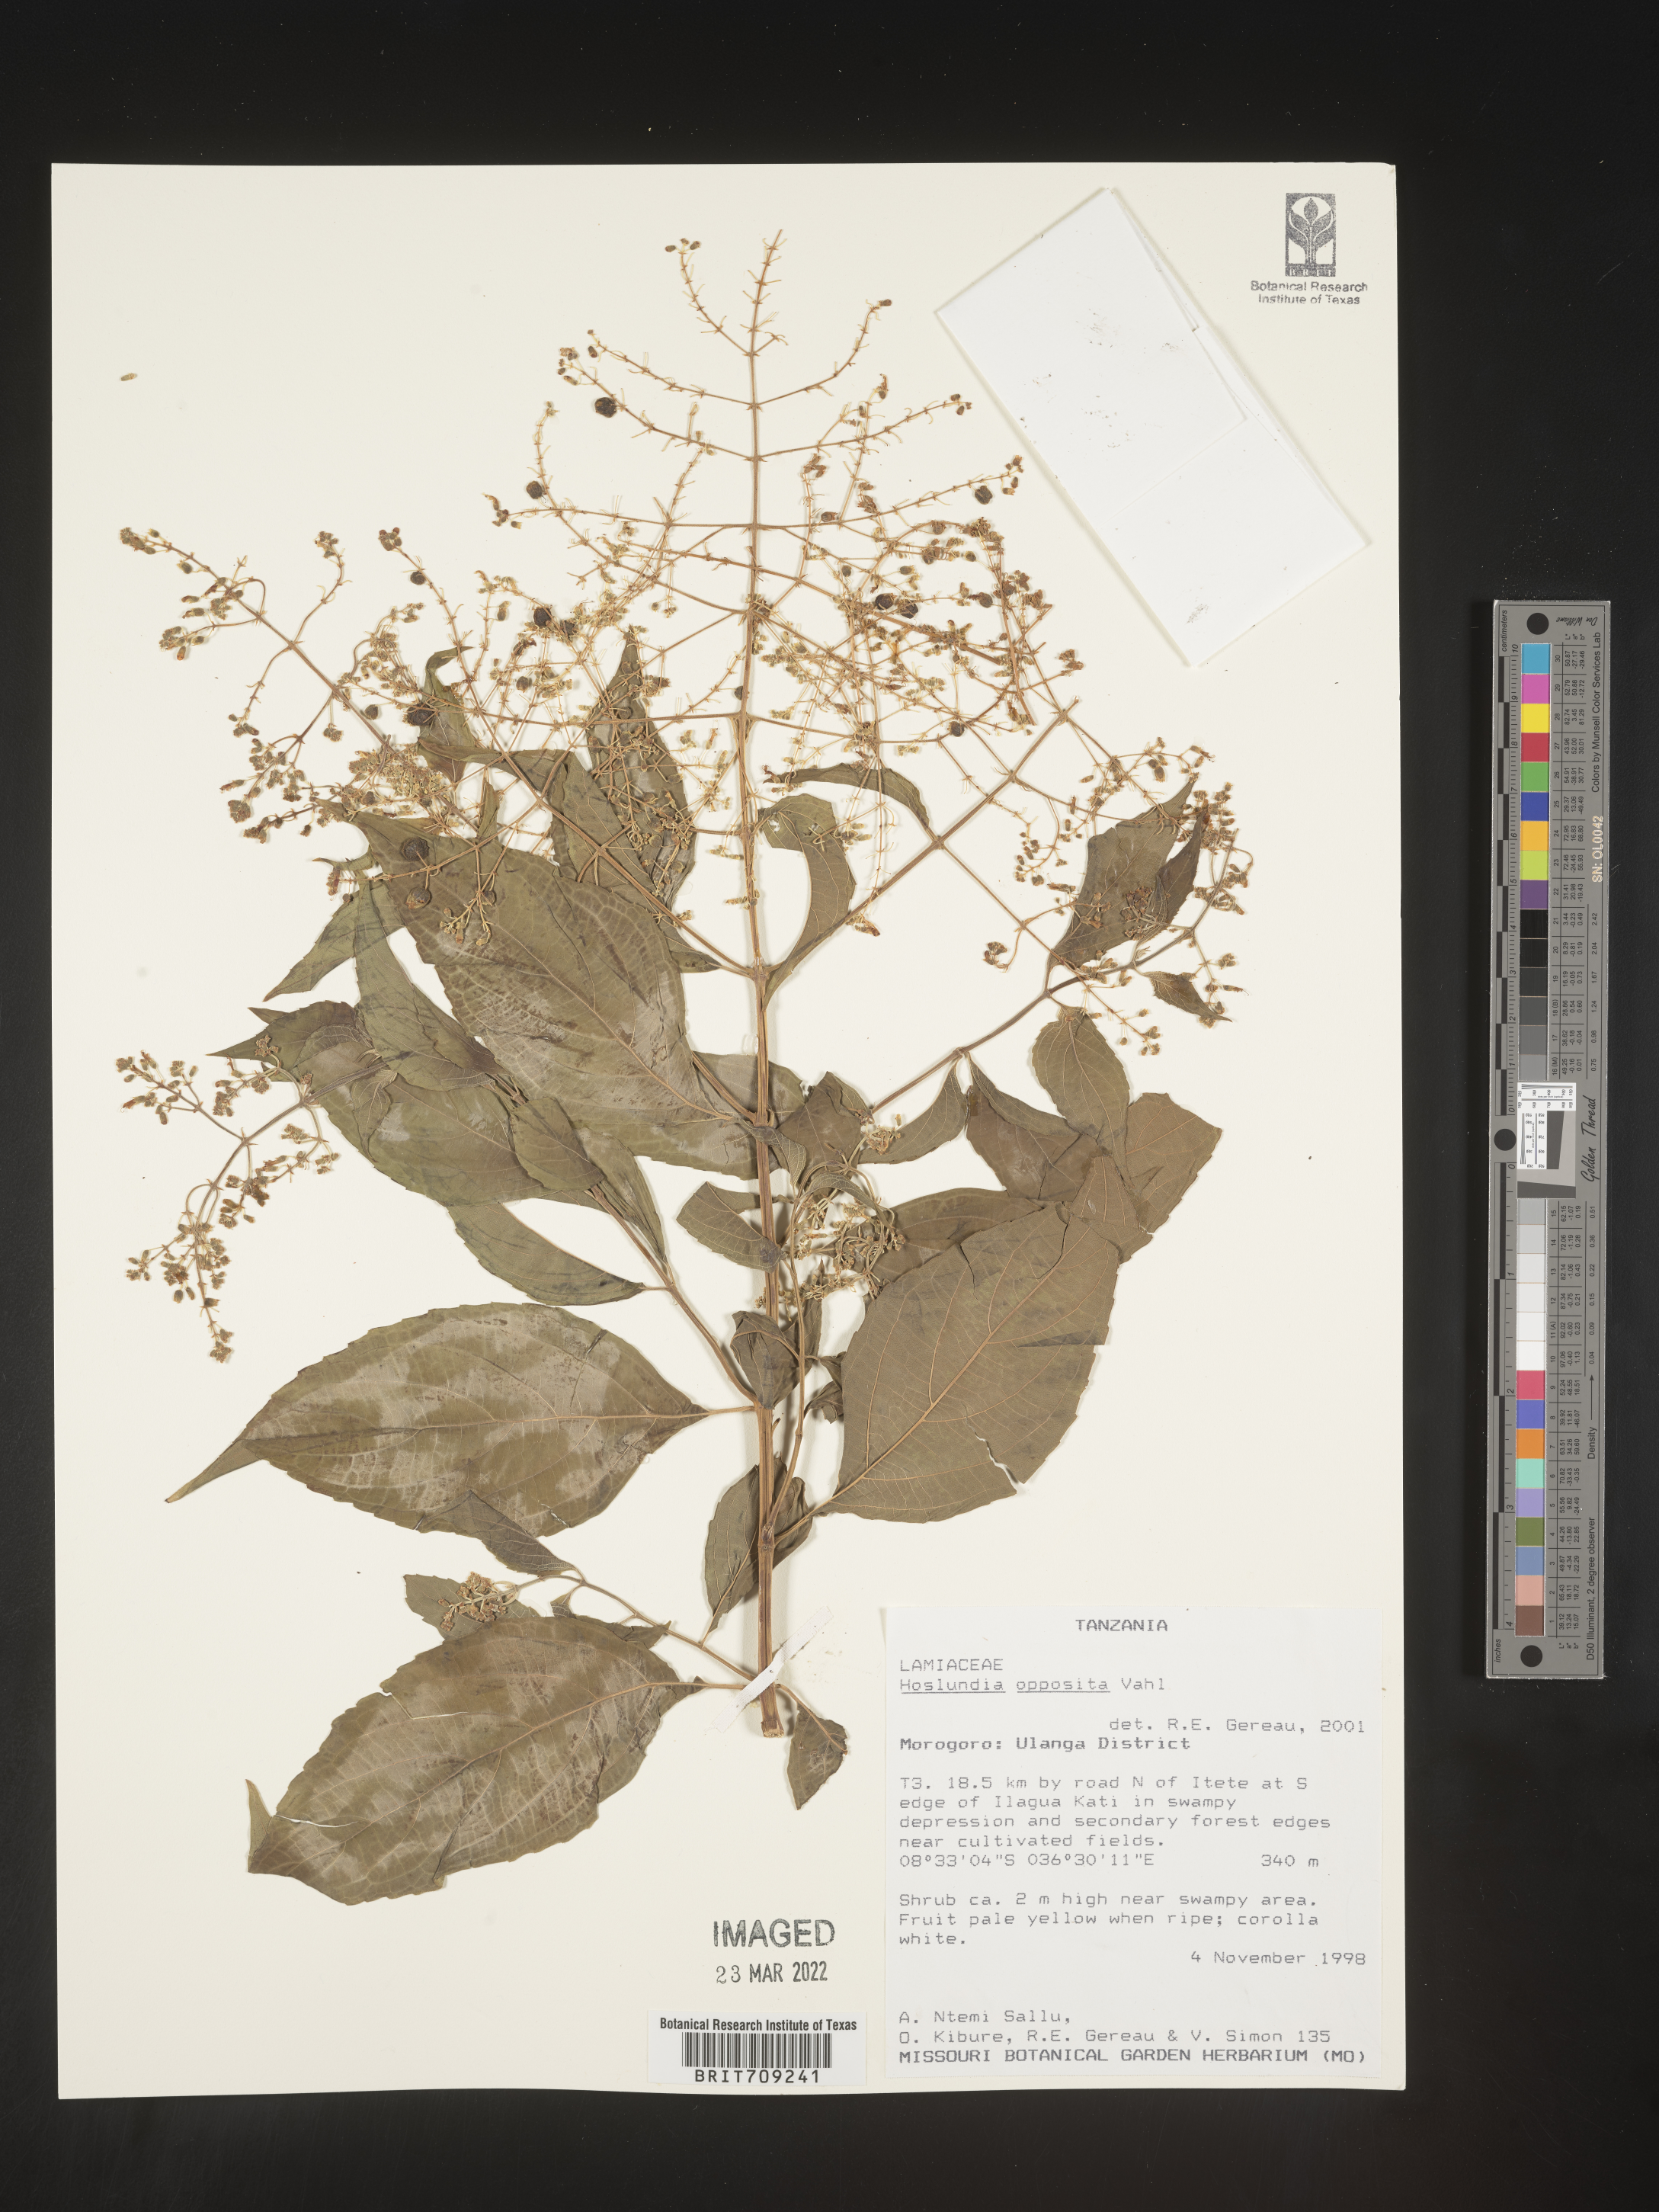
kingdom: Plantae
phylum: Tracheophyta
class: Magnoliopsida
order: Lamiales
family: Lamiaceae
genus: Hoslundia
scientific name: Hoslundia opposita
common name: Kamyuye
